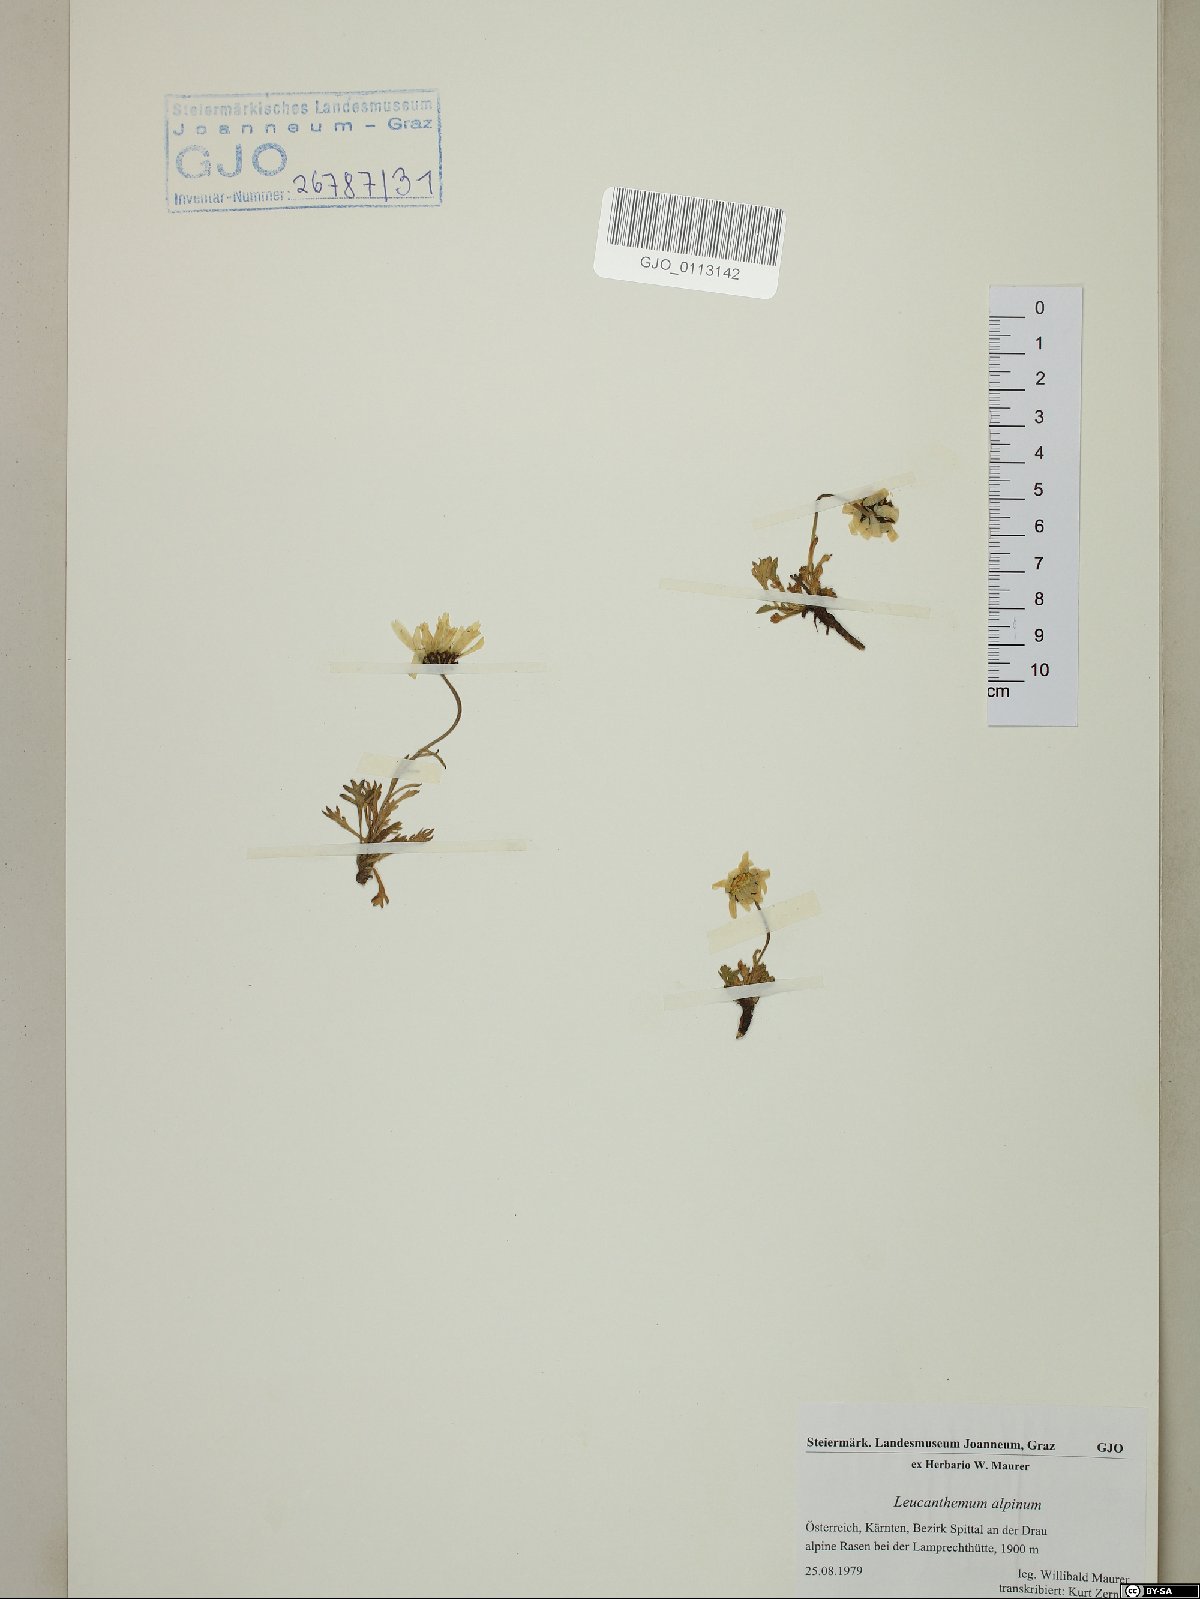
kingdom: Plantae
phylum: Tracheophyta
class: Magnoliopsida
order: Asterales
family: Asteraceae
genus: Leucanthemopsis
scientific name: Leucanthemopsis alpina
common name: Alpine moon daisy
